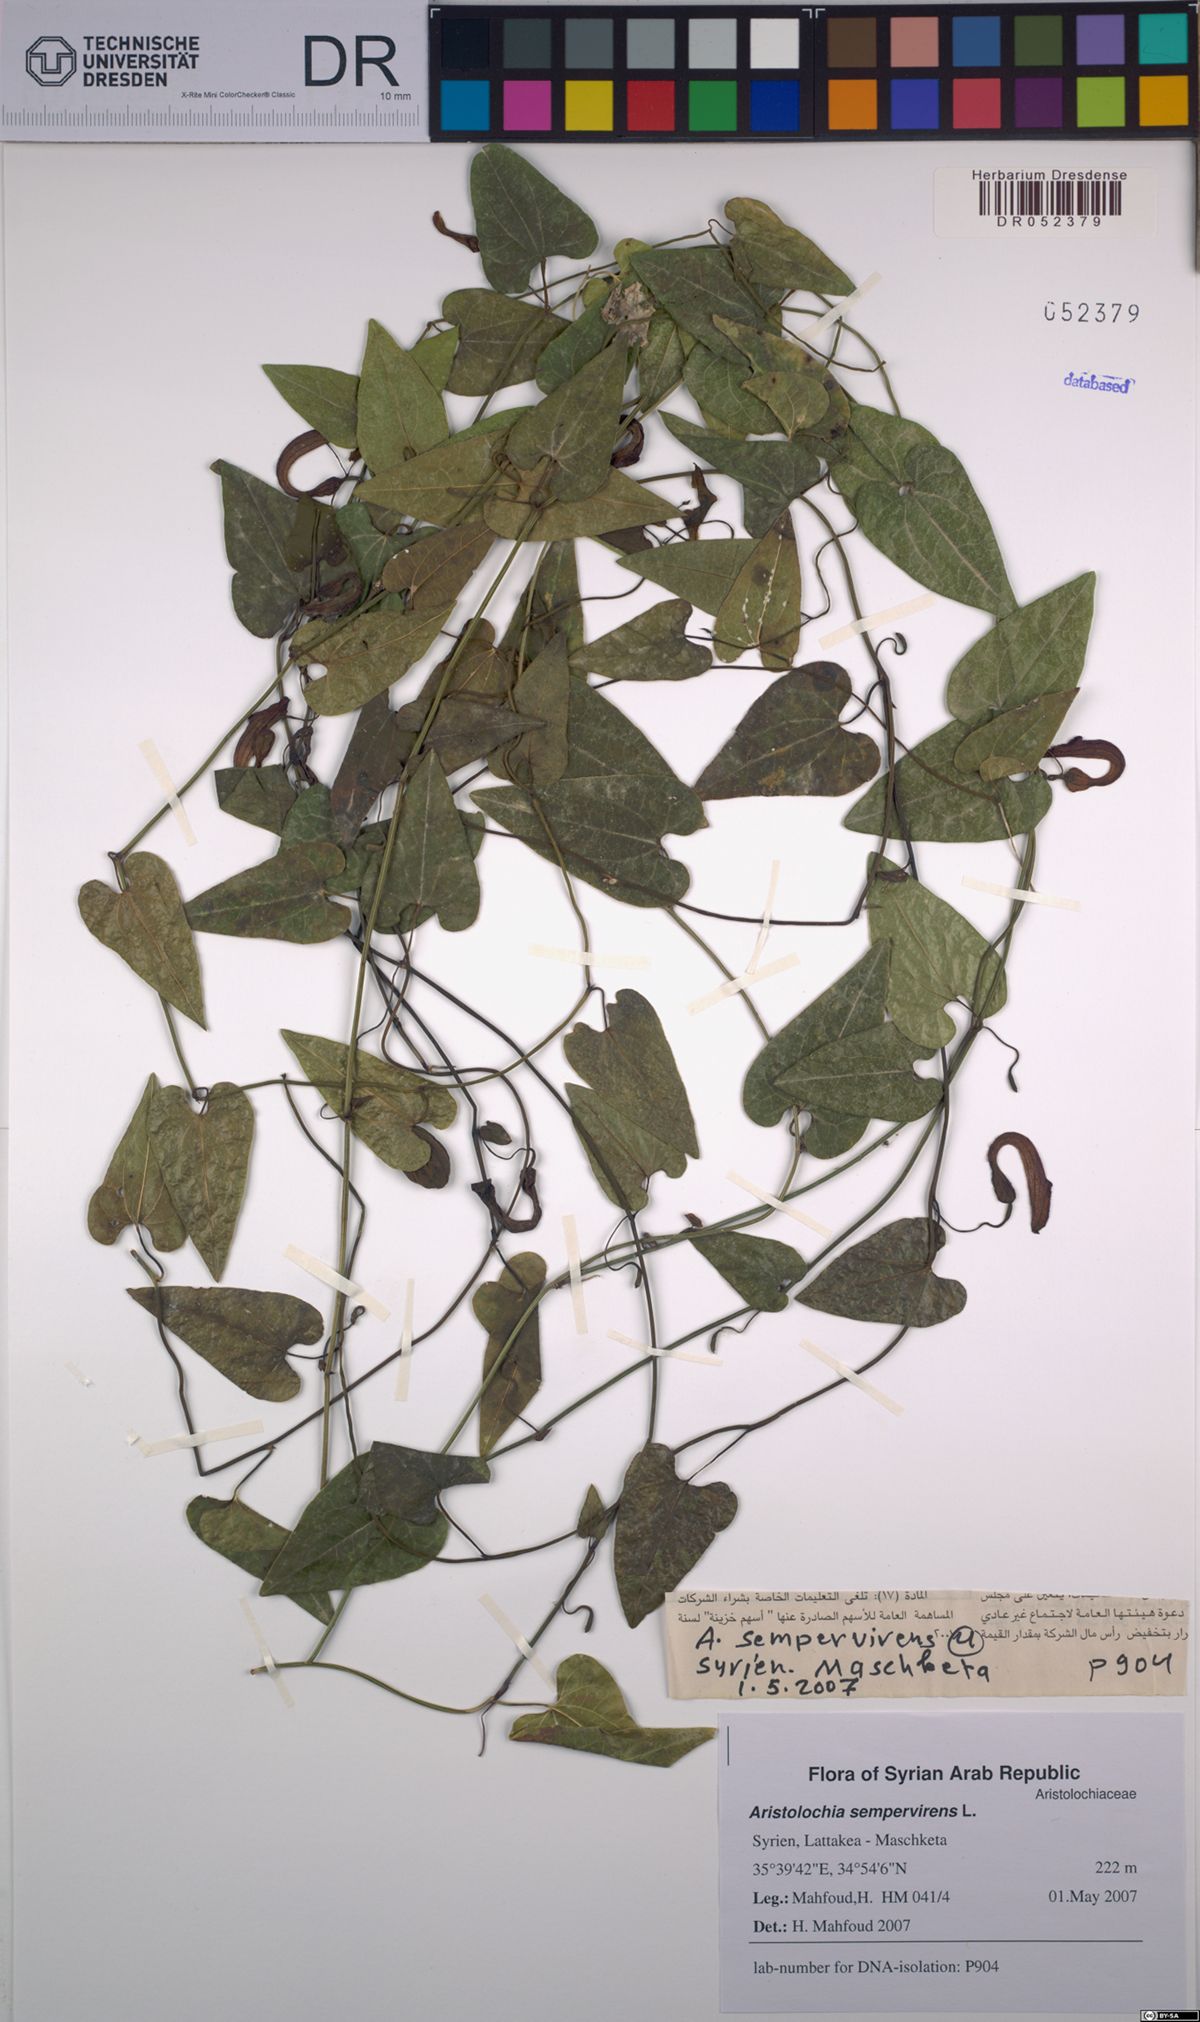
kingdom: Plantae
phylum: Tracheophyta
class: Magnoliopsida
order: Piperales
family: Aristolochiaceae
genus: Aristolochia
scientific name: Aristolochia sempervirens
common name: Long birthwort
